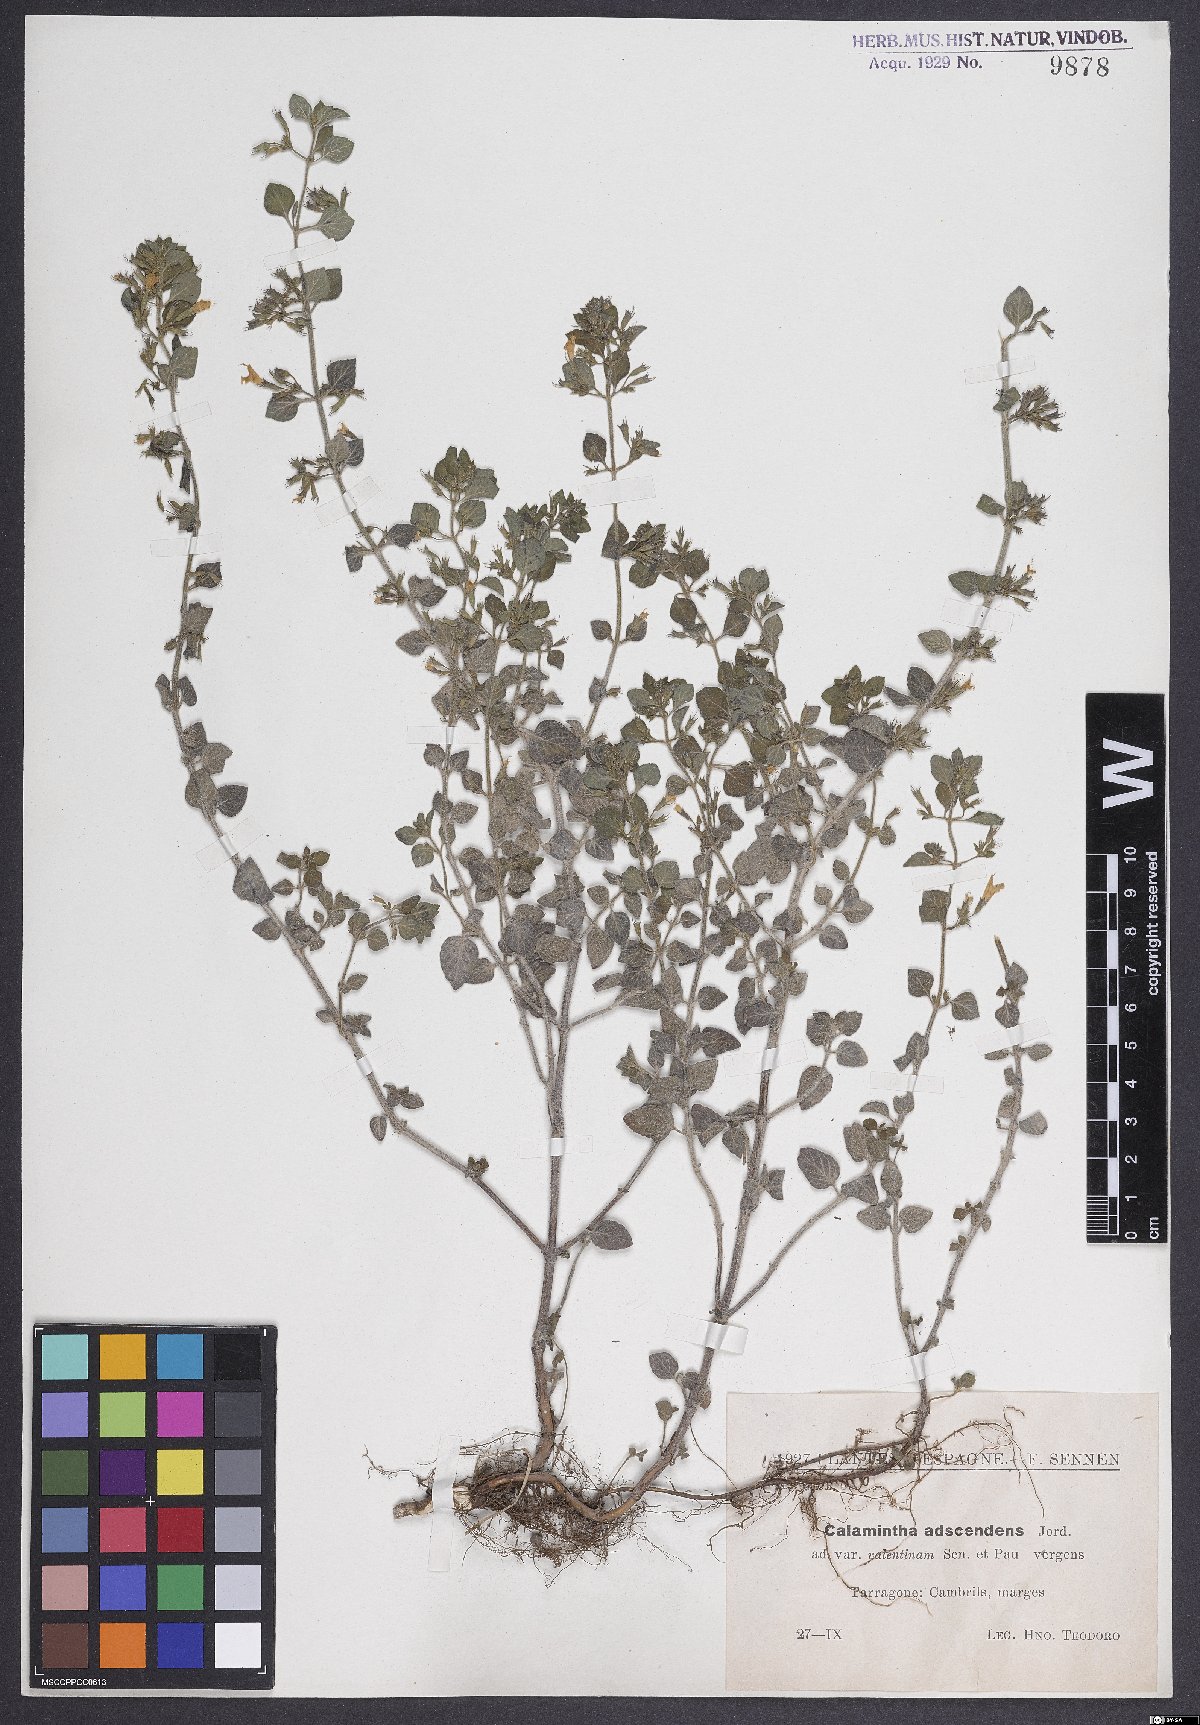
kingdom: Plantae
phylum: Tracheophyta
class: Magnoliopsida
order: Lamiales
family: Lamiaceae
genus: Clinopodium
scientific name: Clinopodium menthifolium
